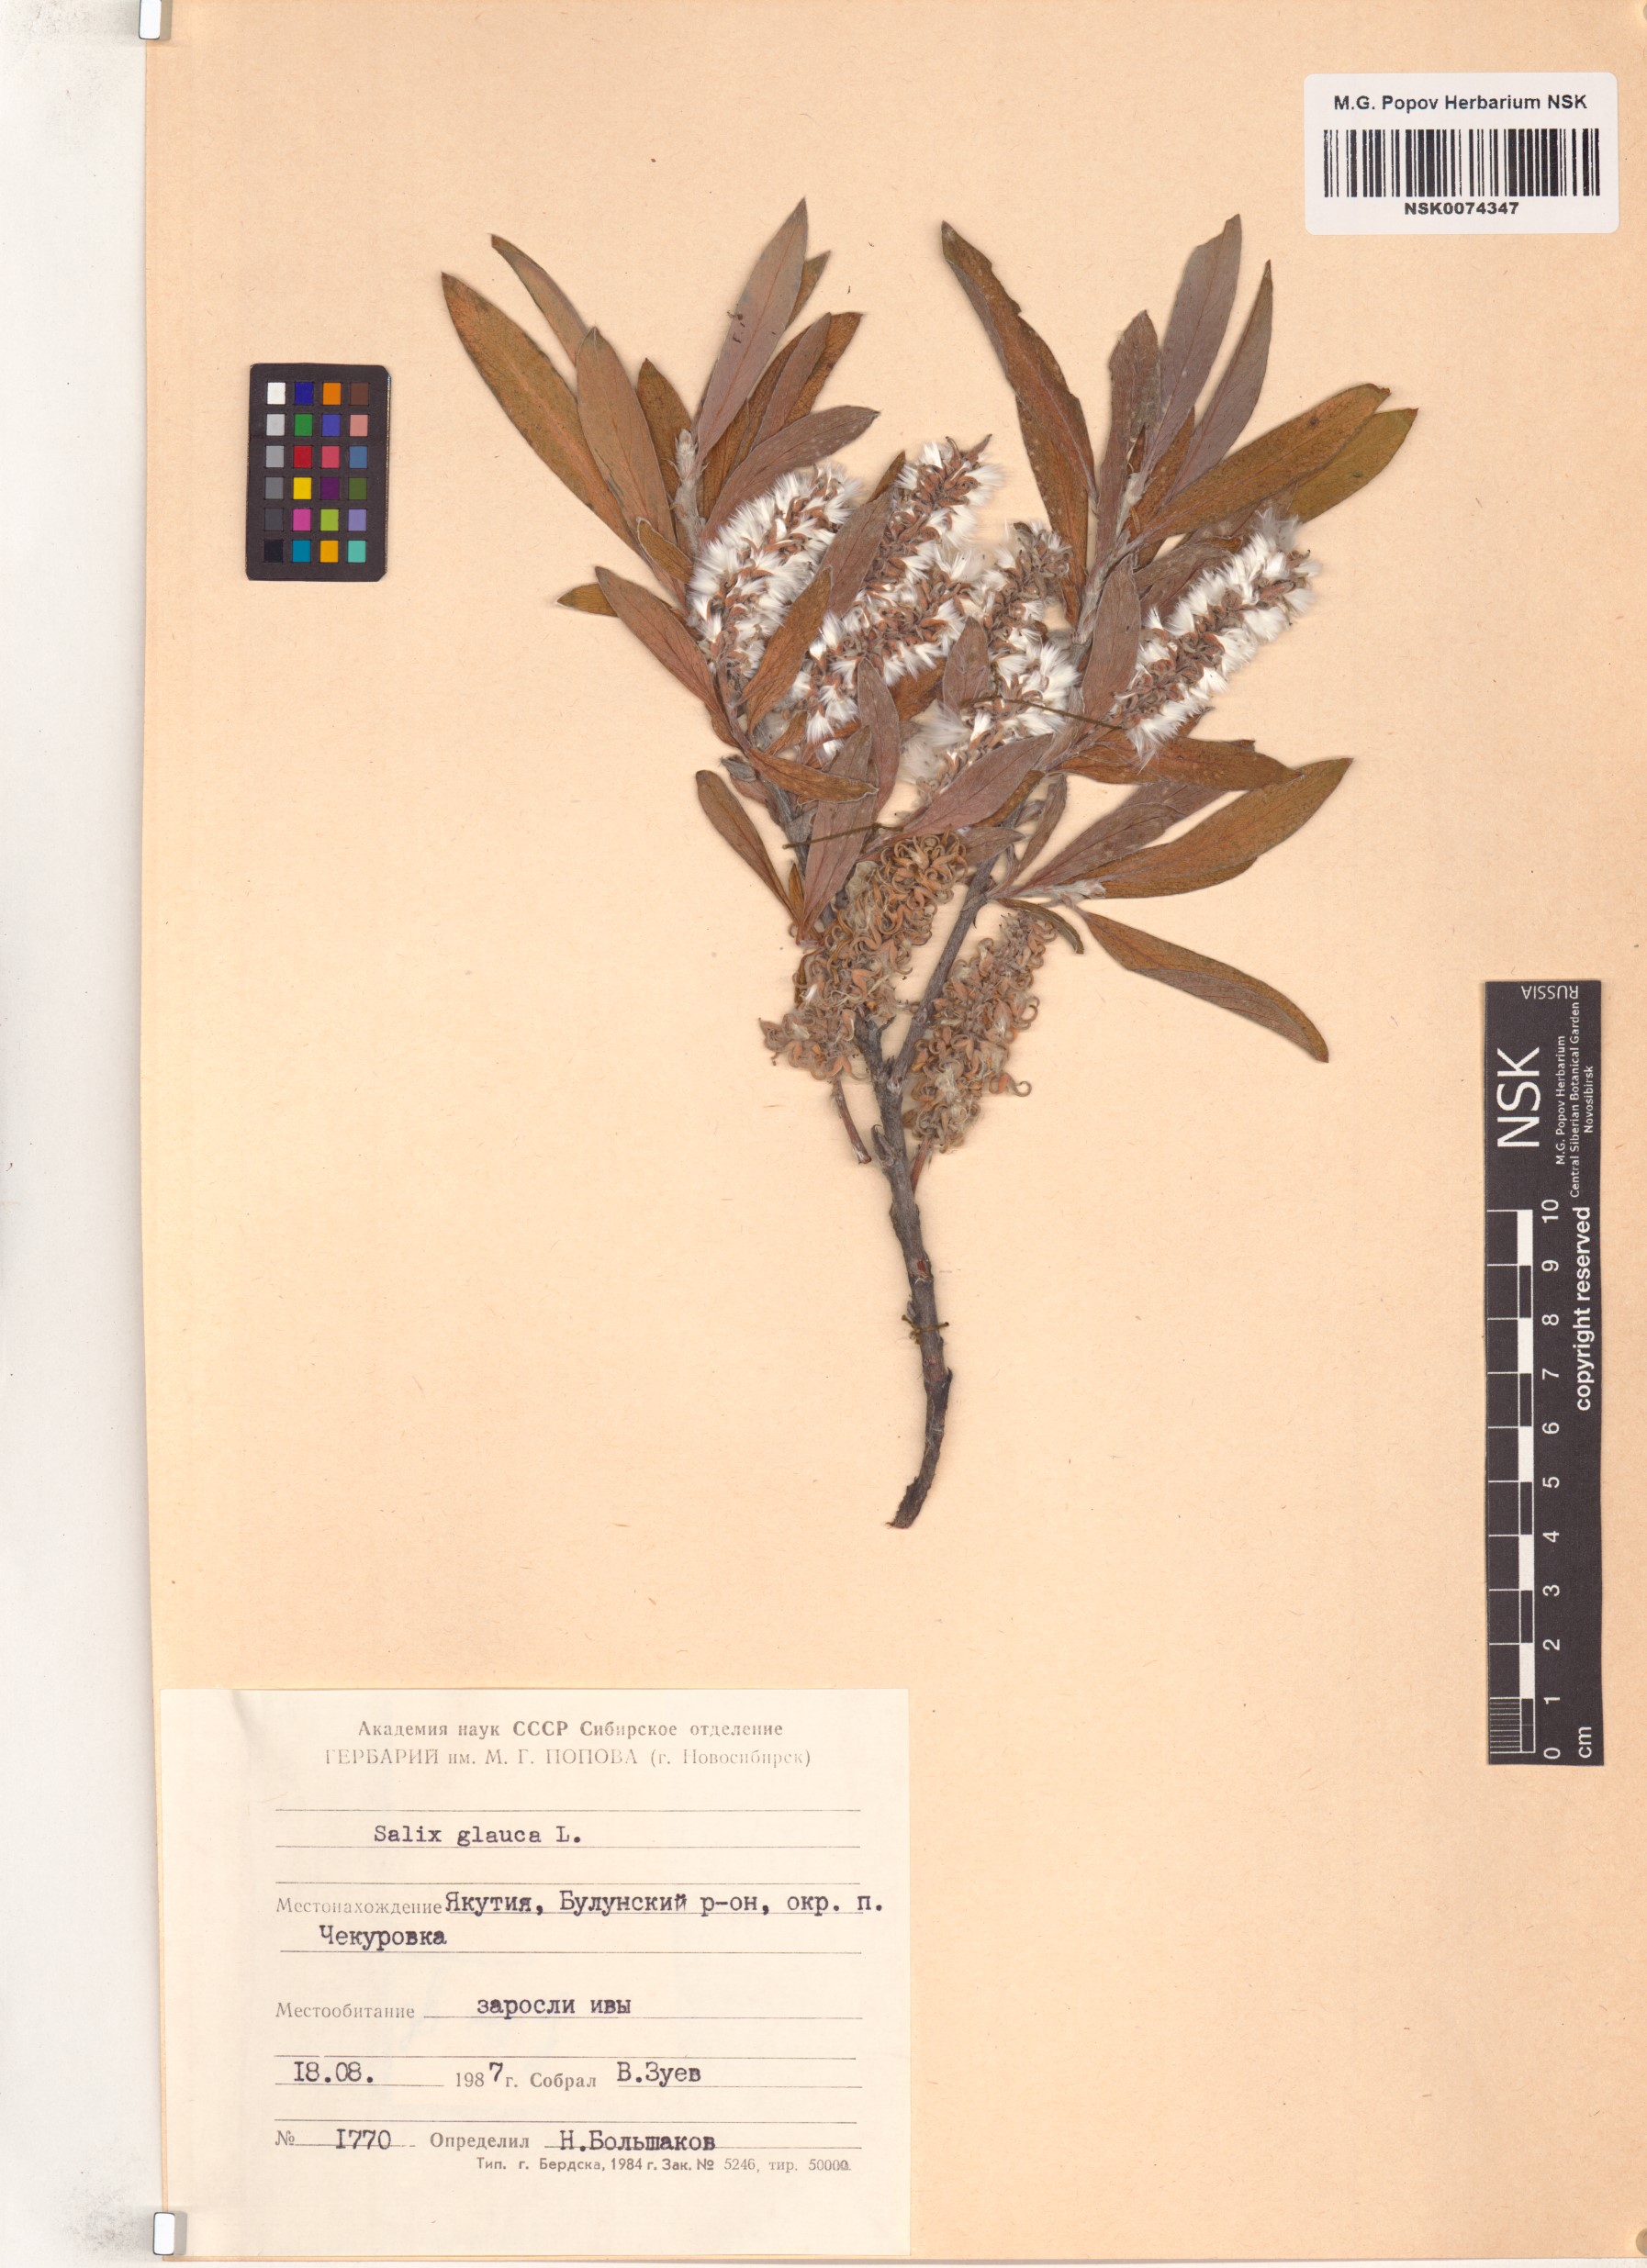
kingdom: Plantae
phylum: Tracheophyta
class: Magnoliopsida
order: Malpighiales
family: Salicaceae
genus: Salix
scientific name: Salix glauca
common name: Glaucous willow
